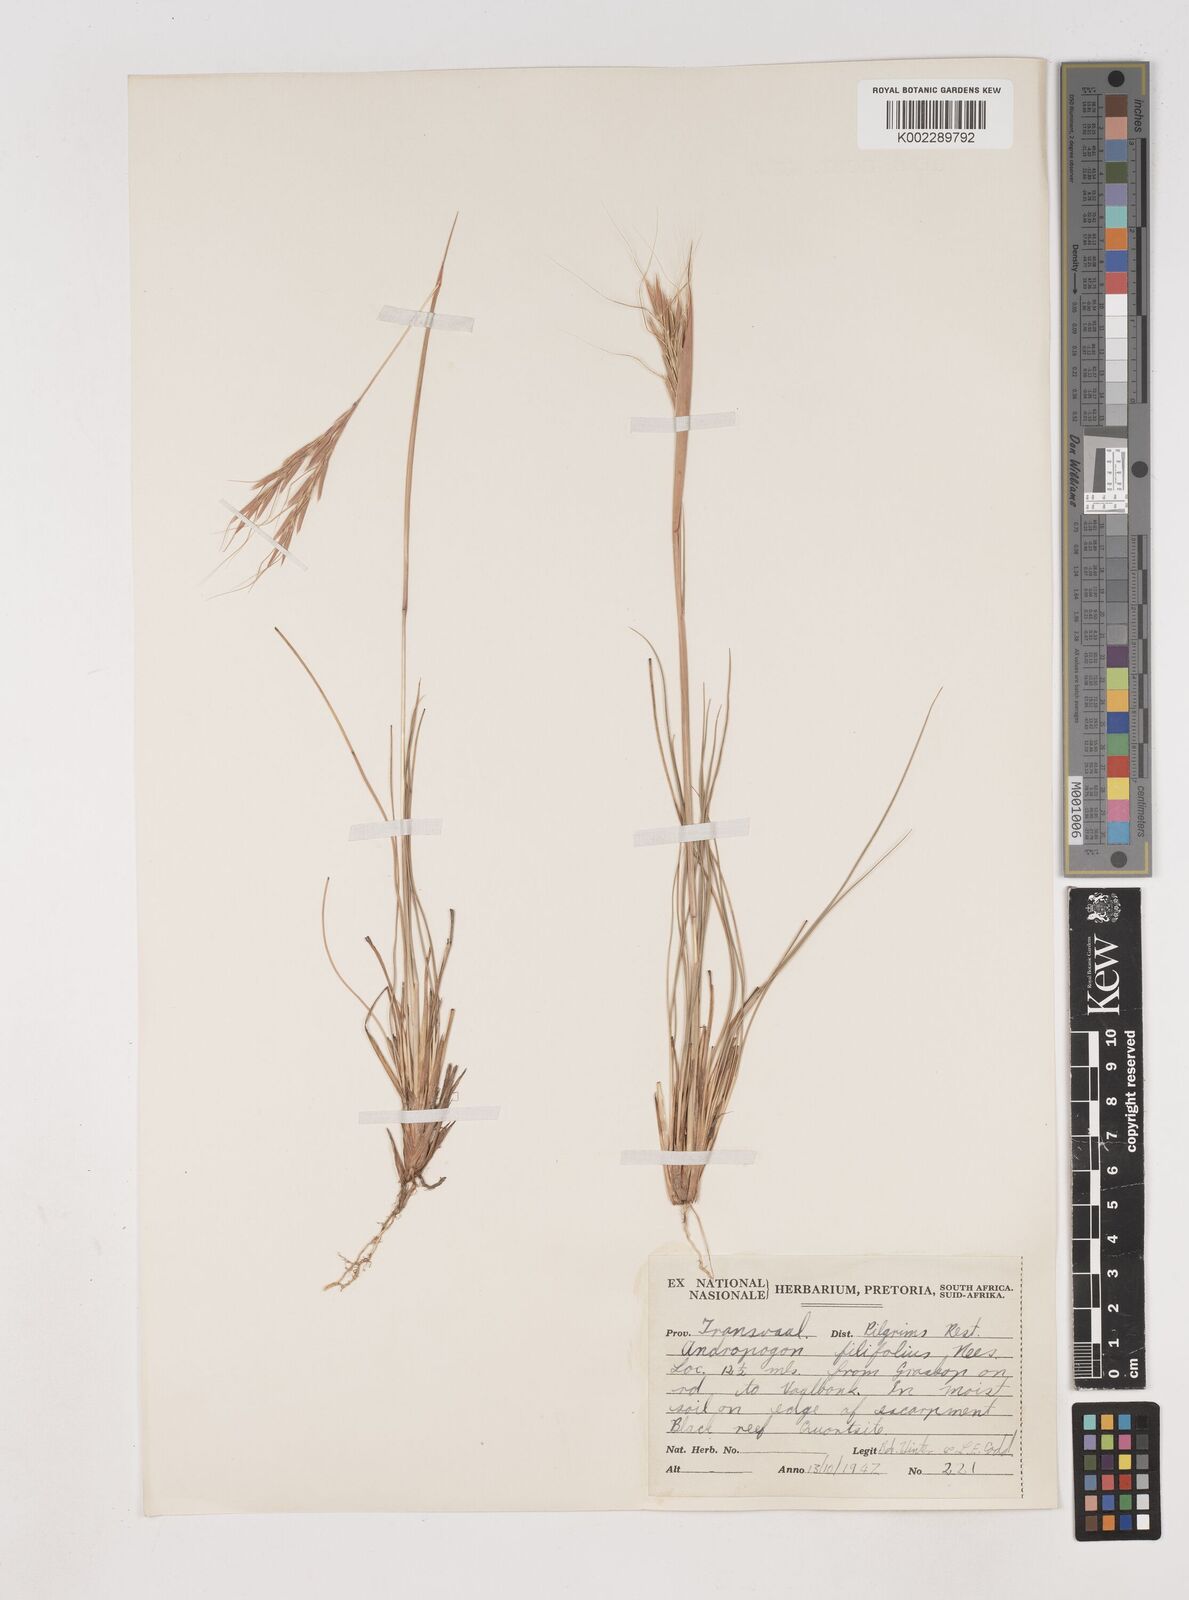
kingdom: Plantae
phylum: Tracheophyta
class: Liliopsida
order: Poales
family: Poaceae
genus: Diheteropogon
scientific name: Diheteropogon filifolius
